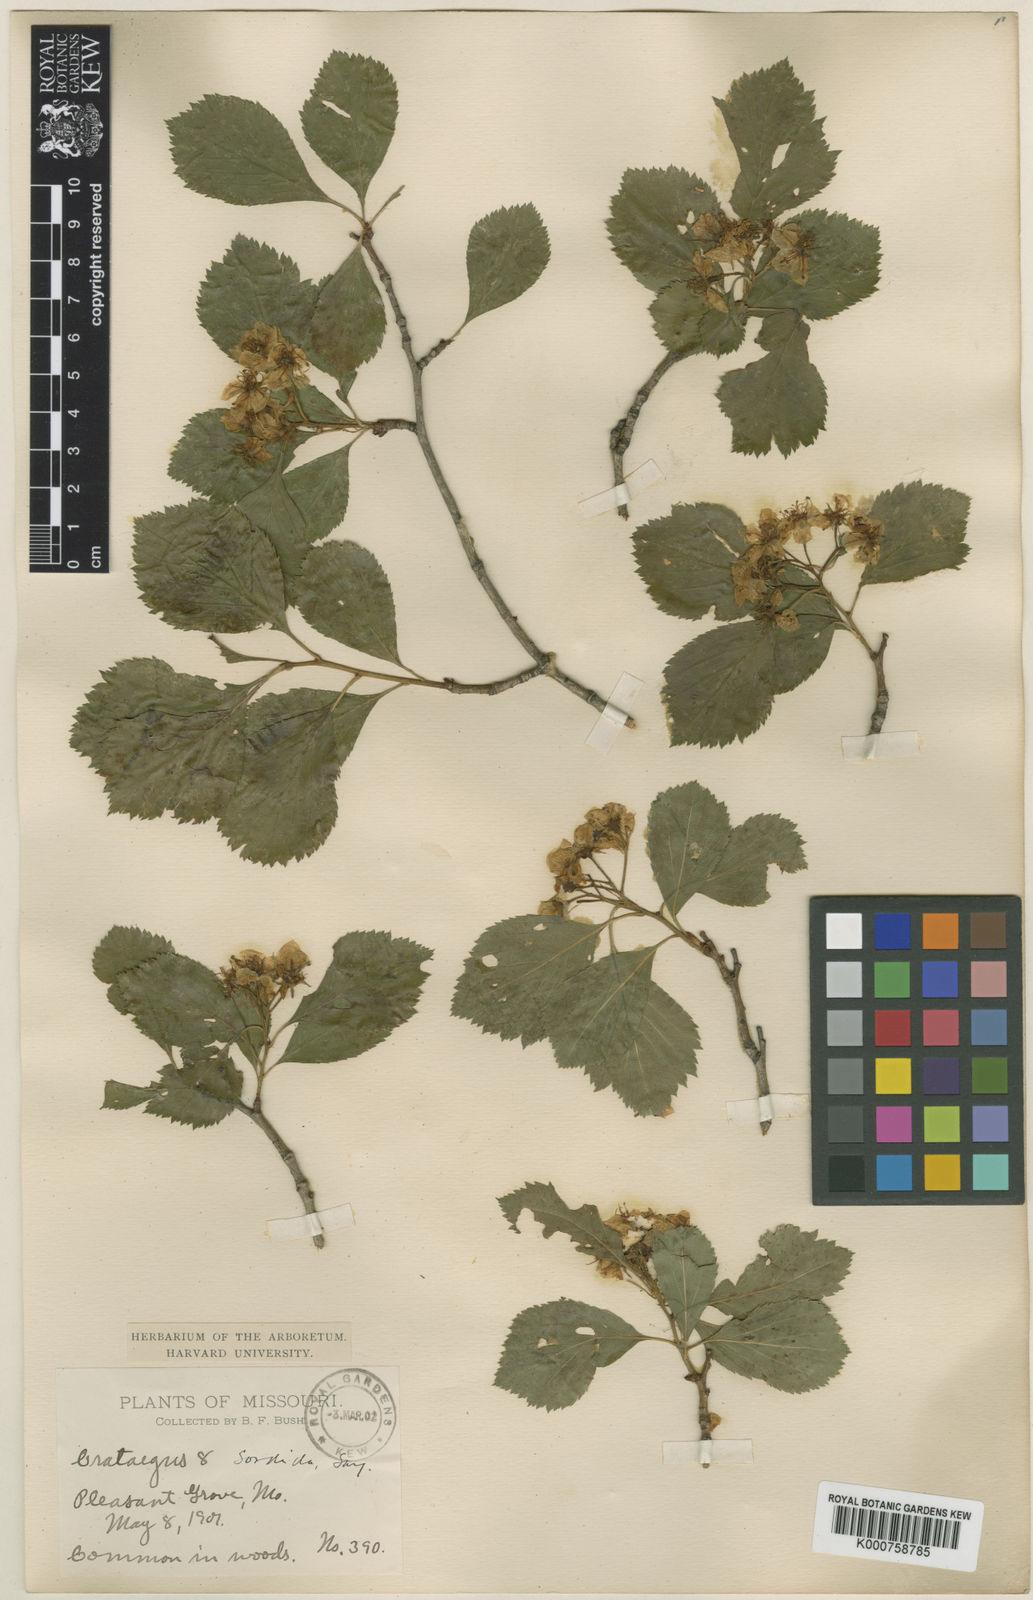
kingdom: Plantae
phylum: Tracheophyta
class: Magnoliopsida
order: Rosales
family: Rosaceae
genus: Crataegus
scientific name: Crataegus collina
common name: Hillside hawthorn
